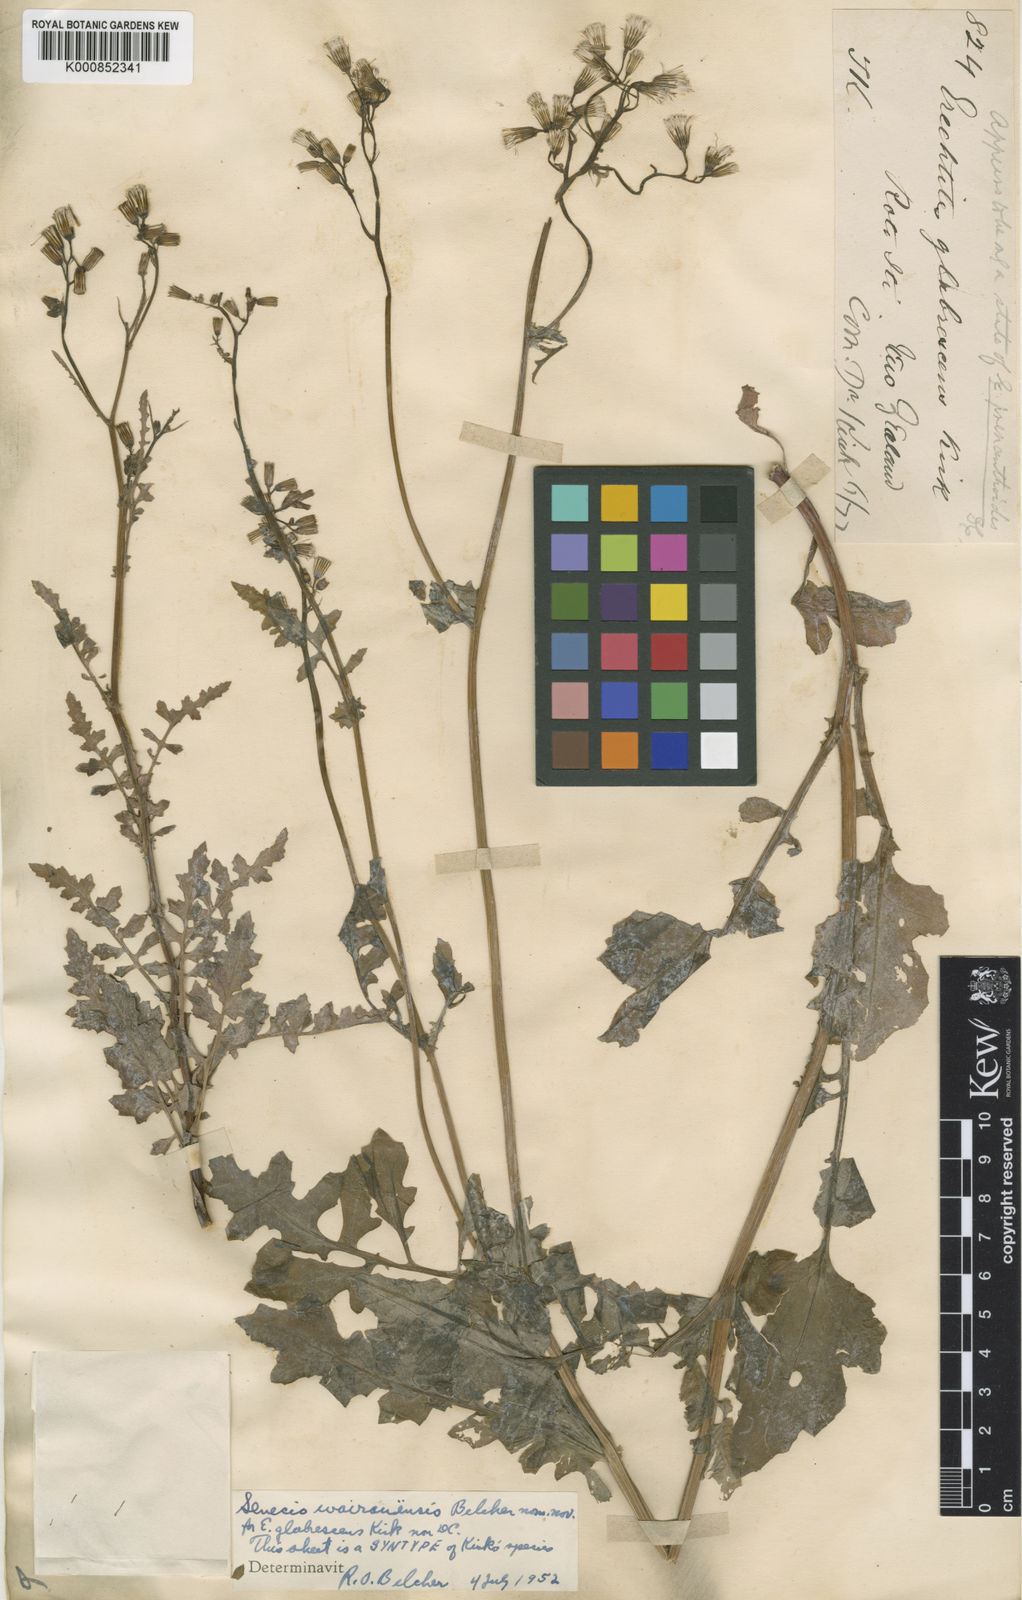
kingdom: Plantae
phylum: Tracheophyta
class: Magnoliopsida
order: Asterales
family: Asteraceae
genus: Senecio
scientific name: Senecio wairauensis
